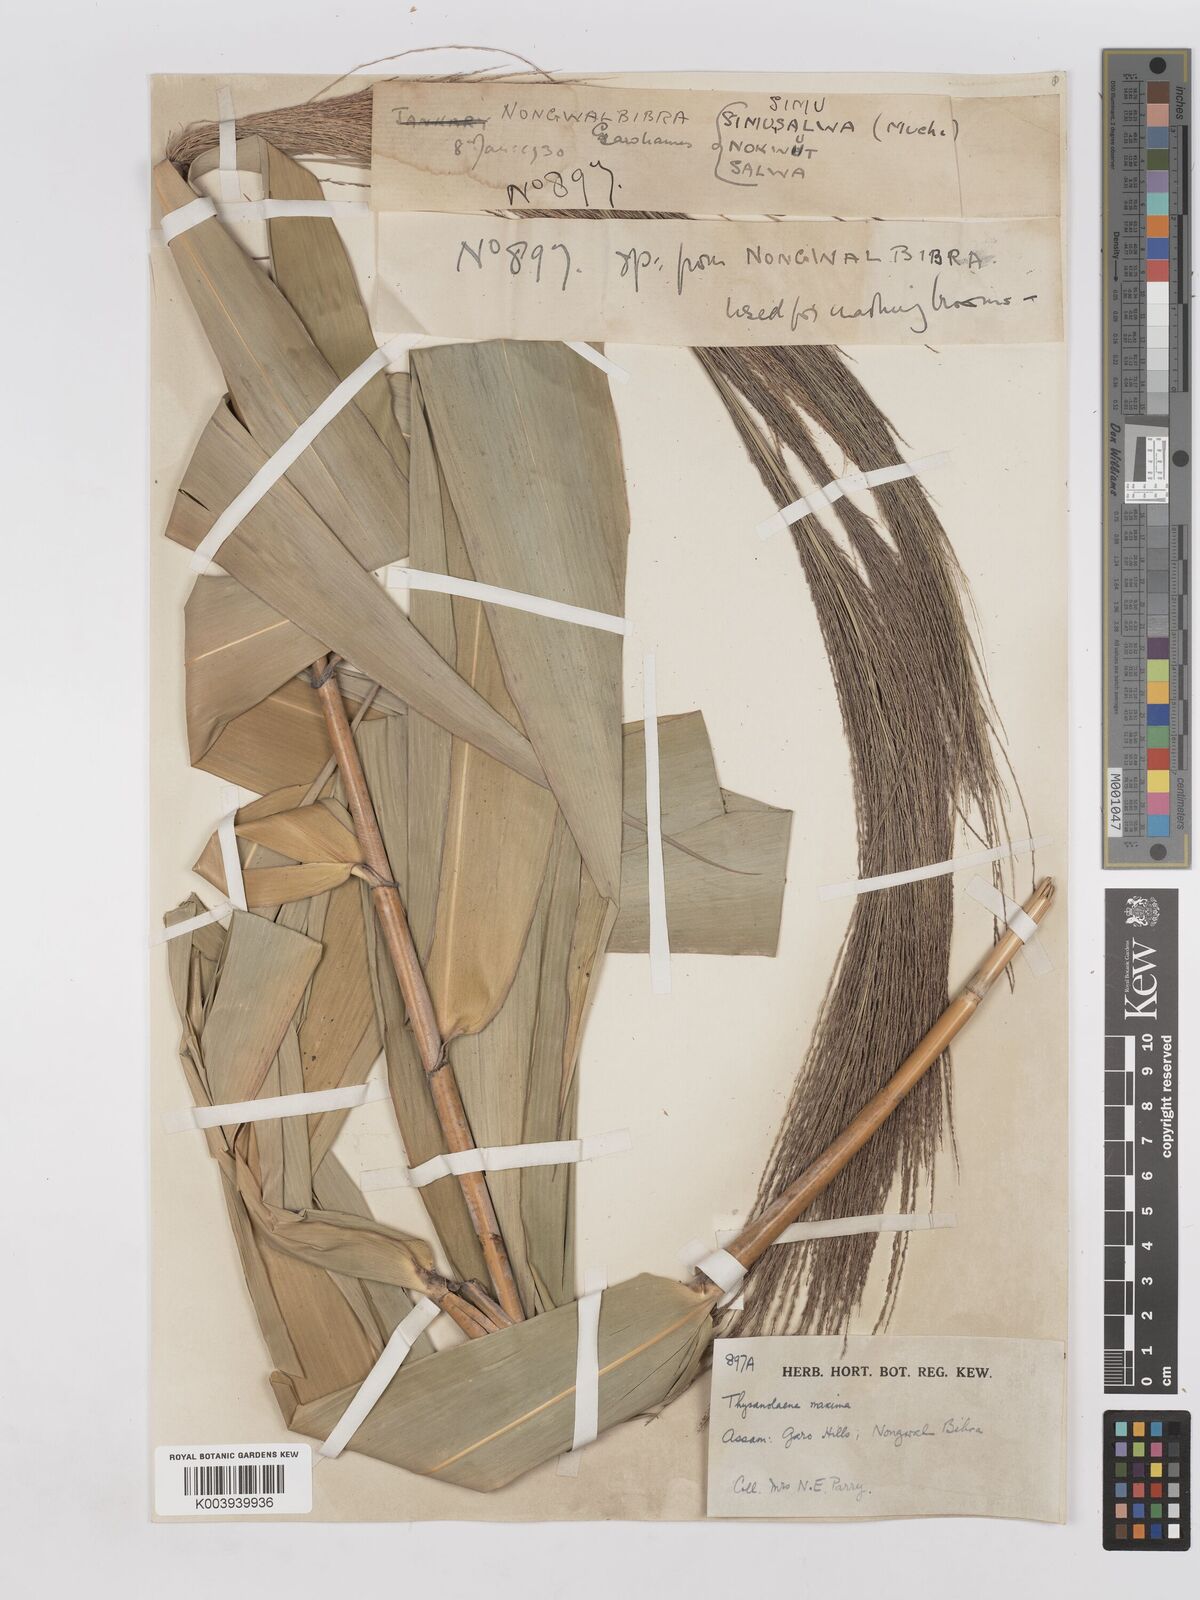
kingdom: Plantae
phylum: Tracheophyta
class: Liliopsida
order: Poales
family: Poaceae
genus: Thysanolaena
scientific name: Thysanolaena latifolia
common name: Tiger grass
